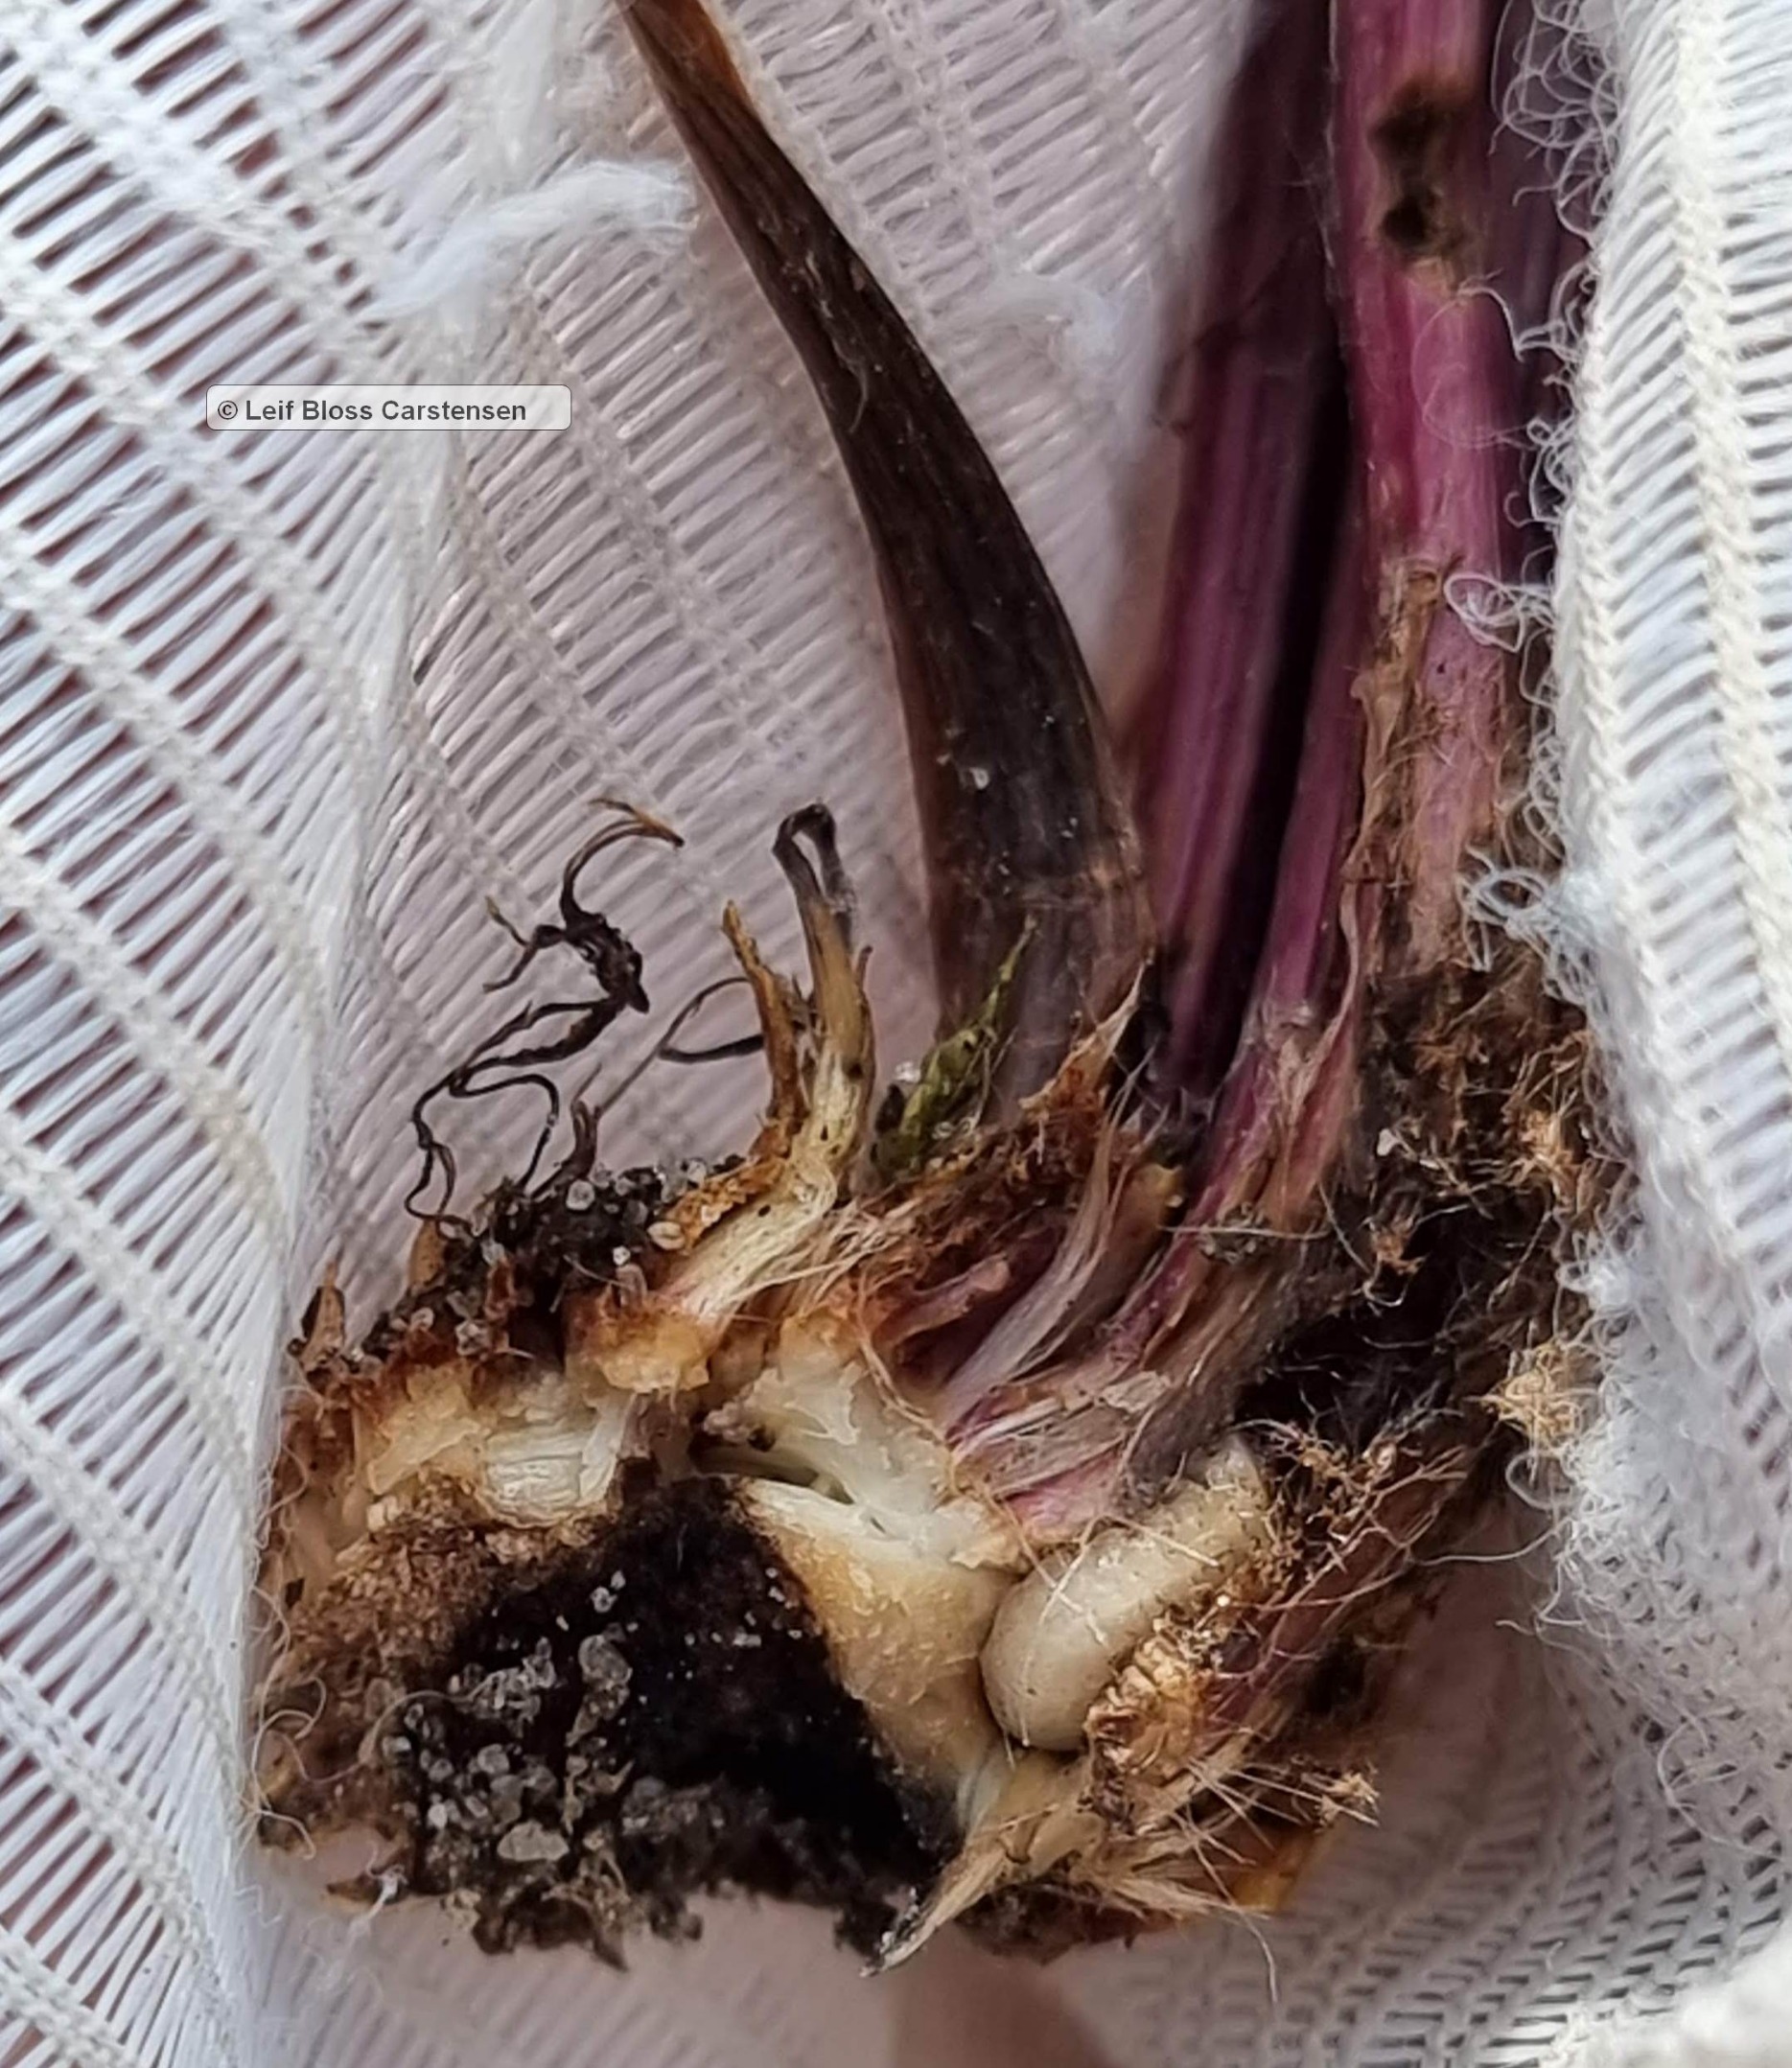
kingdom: Animalia
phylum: Arthropoda
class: Insecta
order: Diptera
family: Syrphidae
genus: Cheilosia
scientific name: Cheilosia lasiopa
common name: Vejbred-urtesvirreflue
